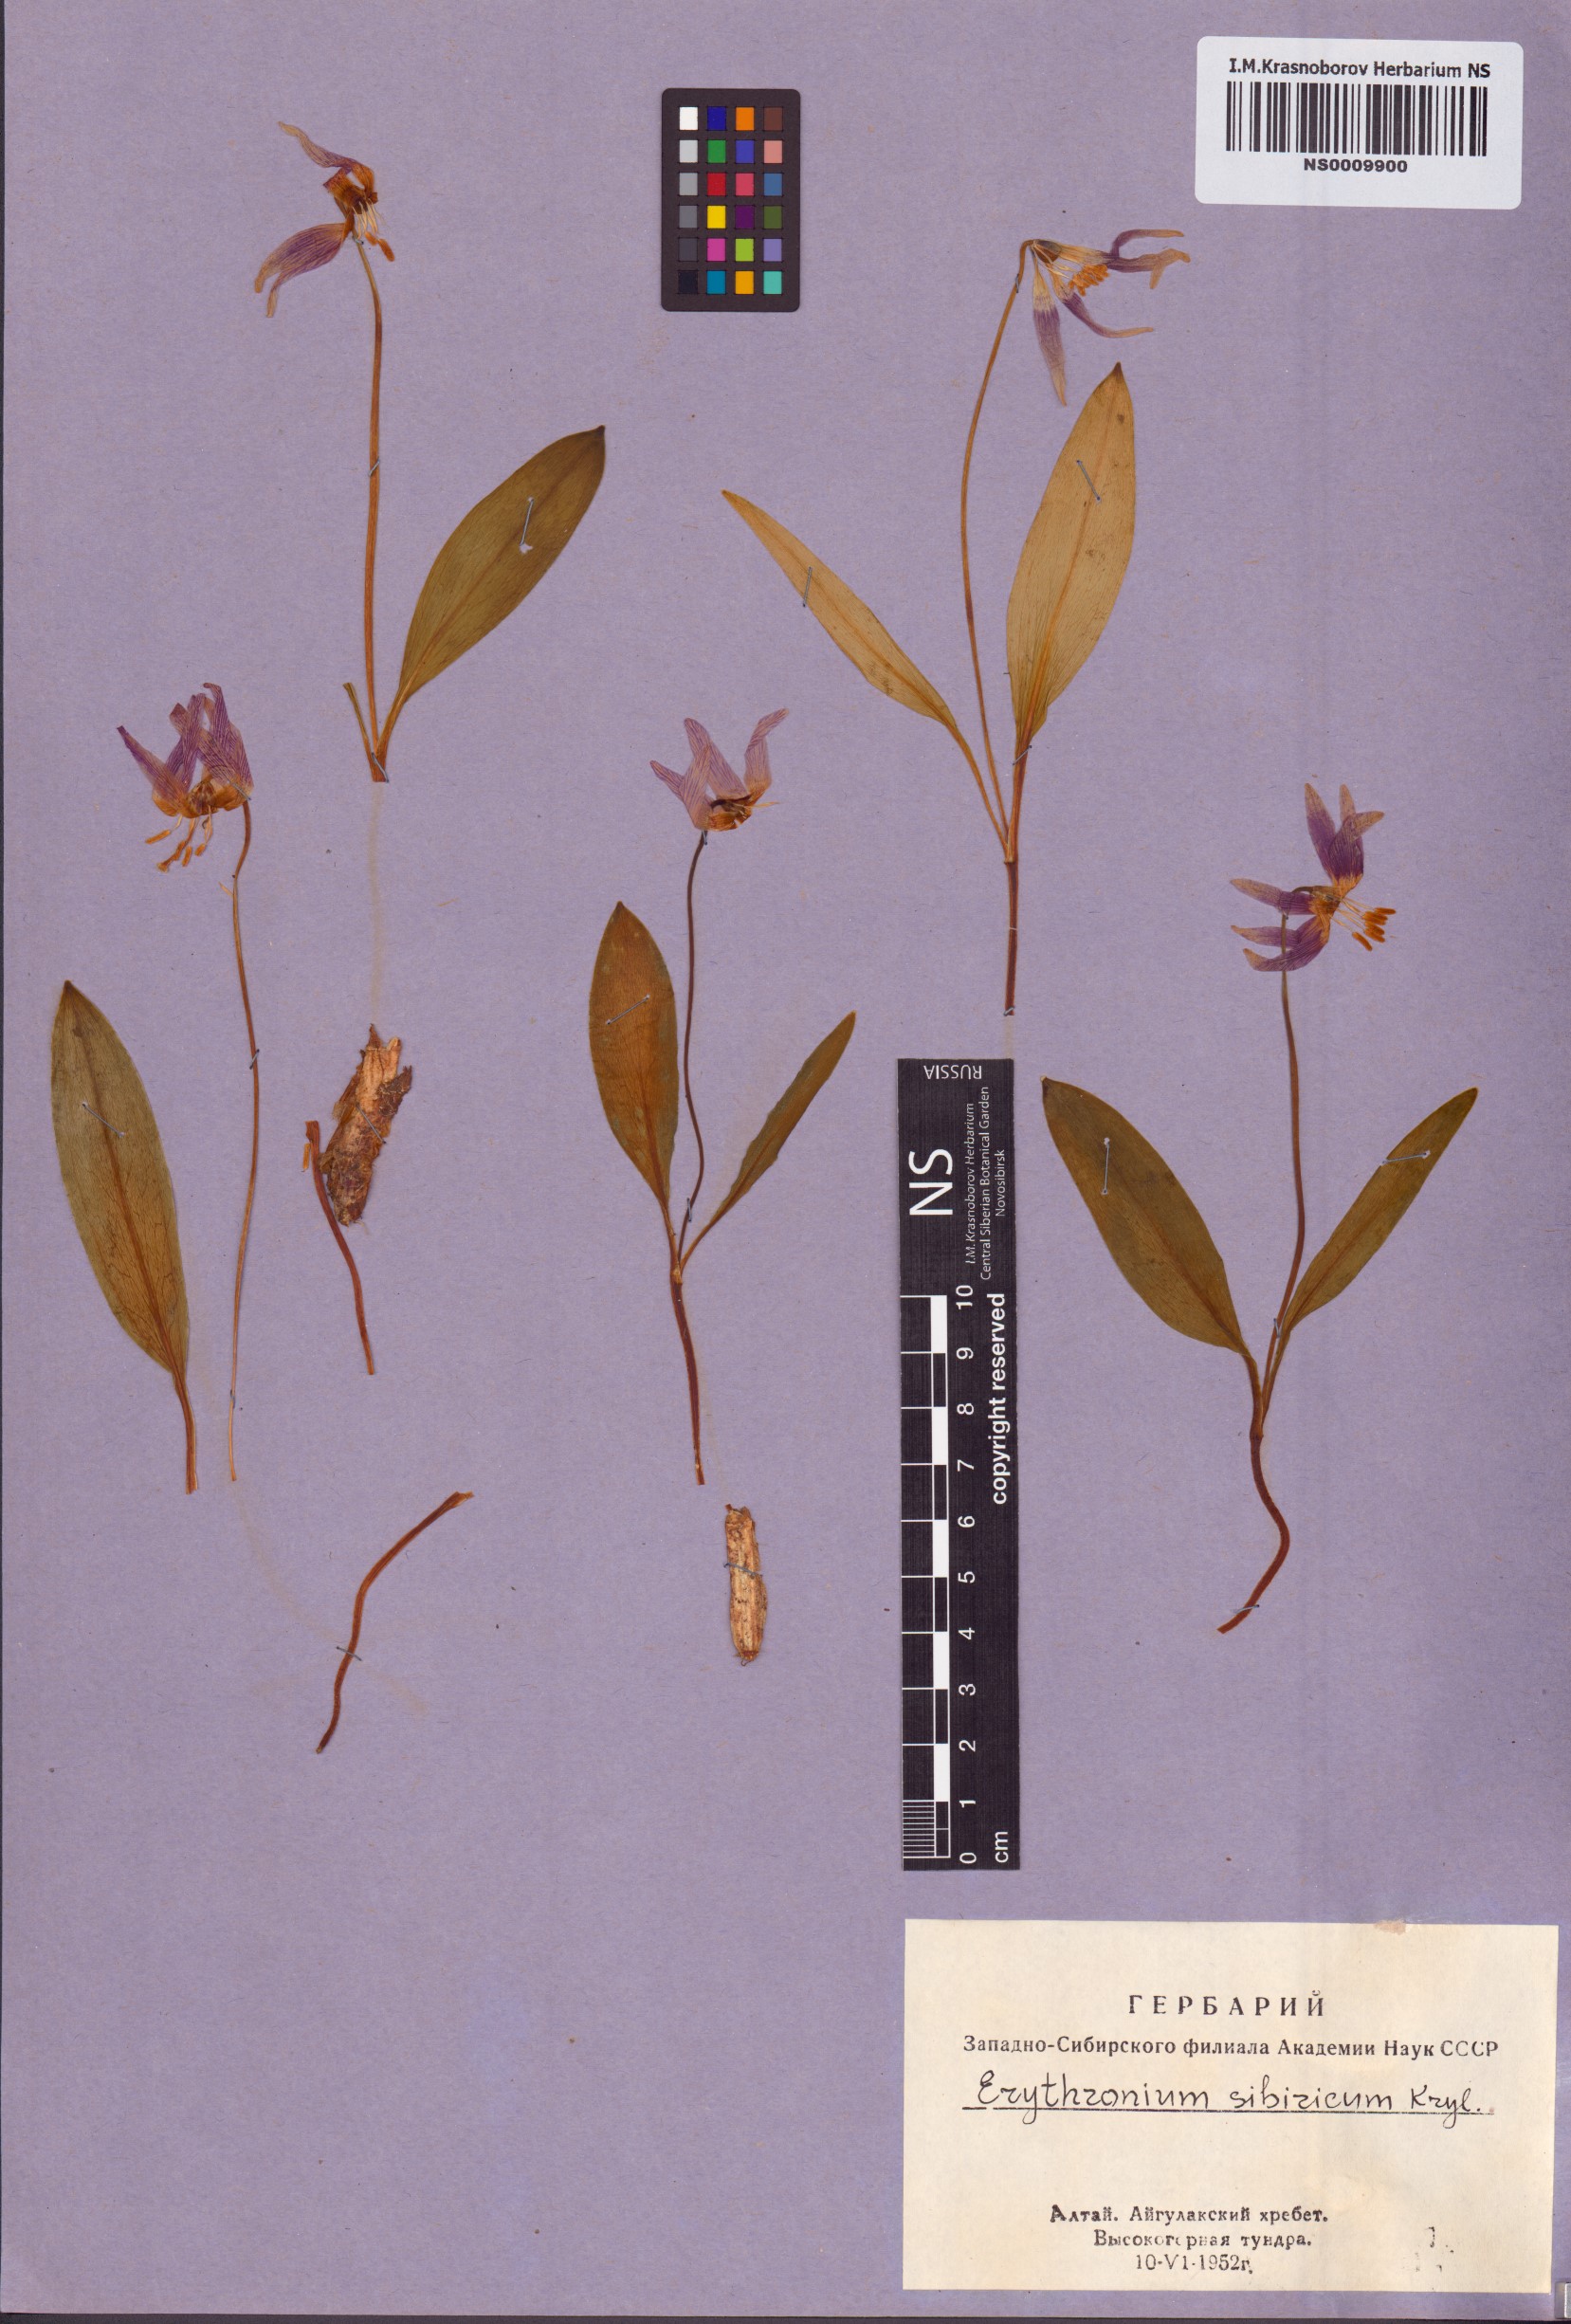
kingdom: Plantae
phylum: Tracheophyta
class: Liliopsida
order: Liliales
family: Liliaceae
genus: Erythronium
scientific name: Erythronium sibiricum
